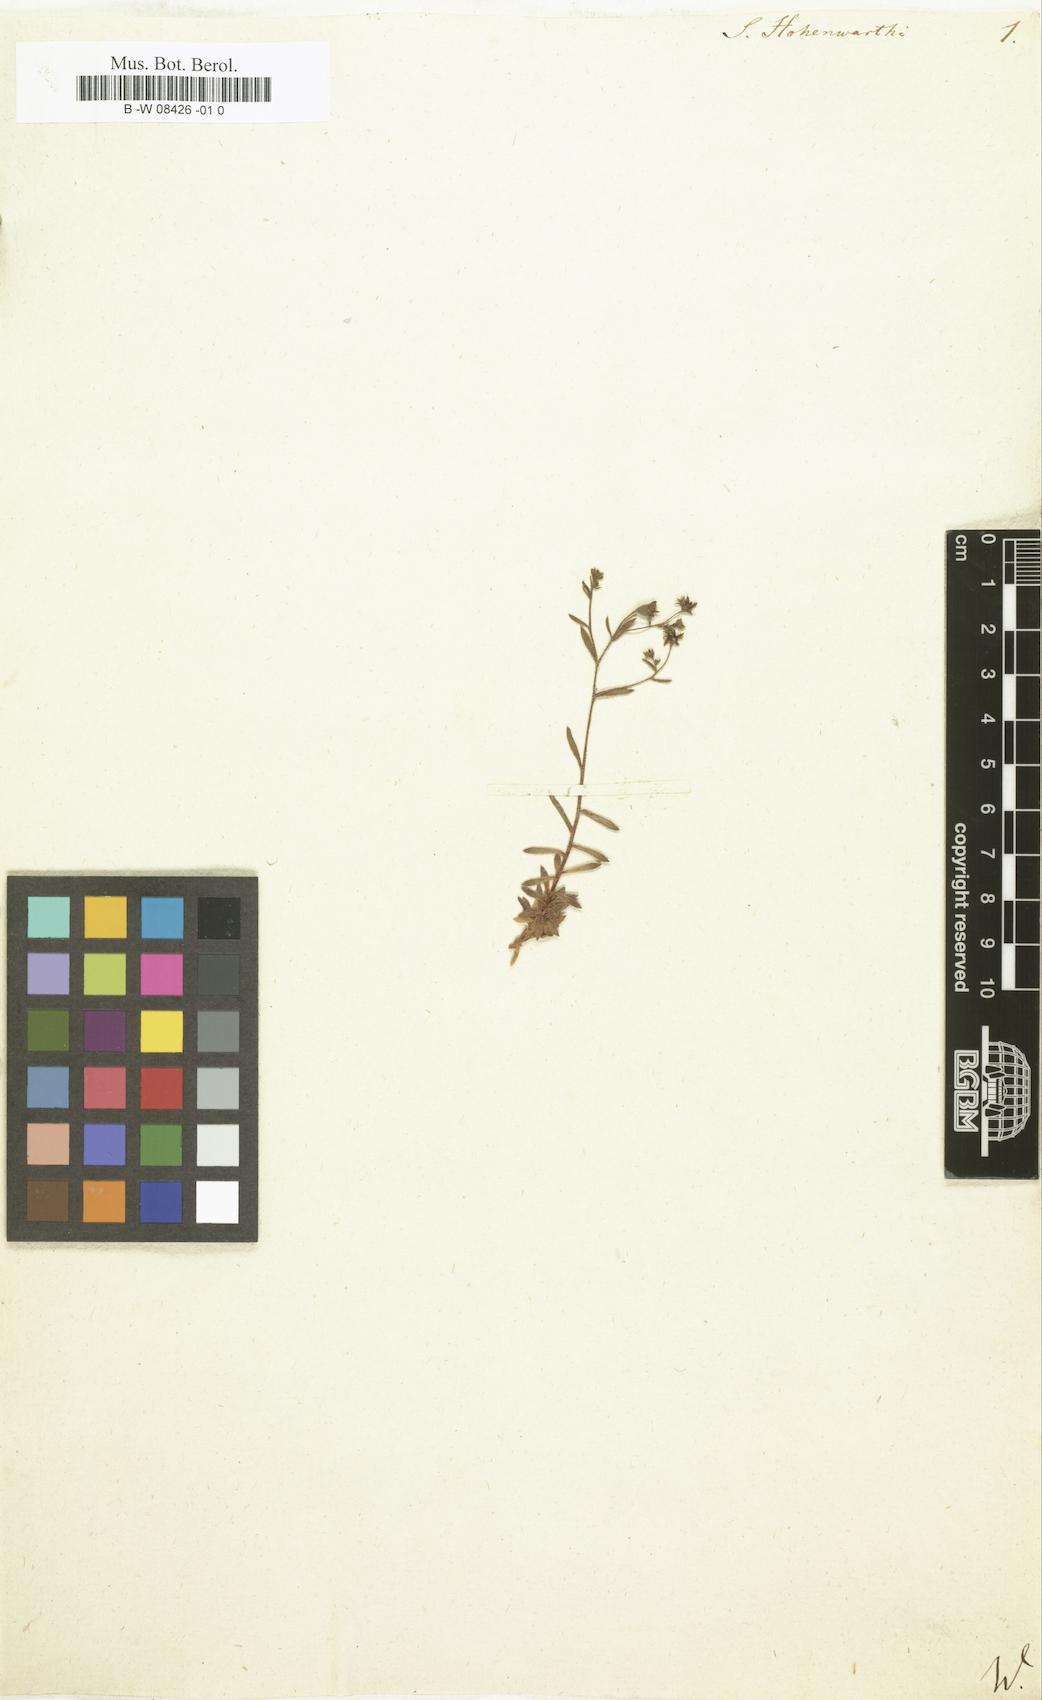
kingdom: Plantae
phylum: Tracheophyta
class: Magnoliopsida
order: Saxifragales
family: Saxifragaceae
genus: Saxifraga
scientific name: Saxifraga hohenwartii
